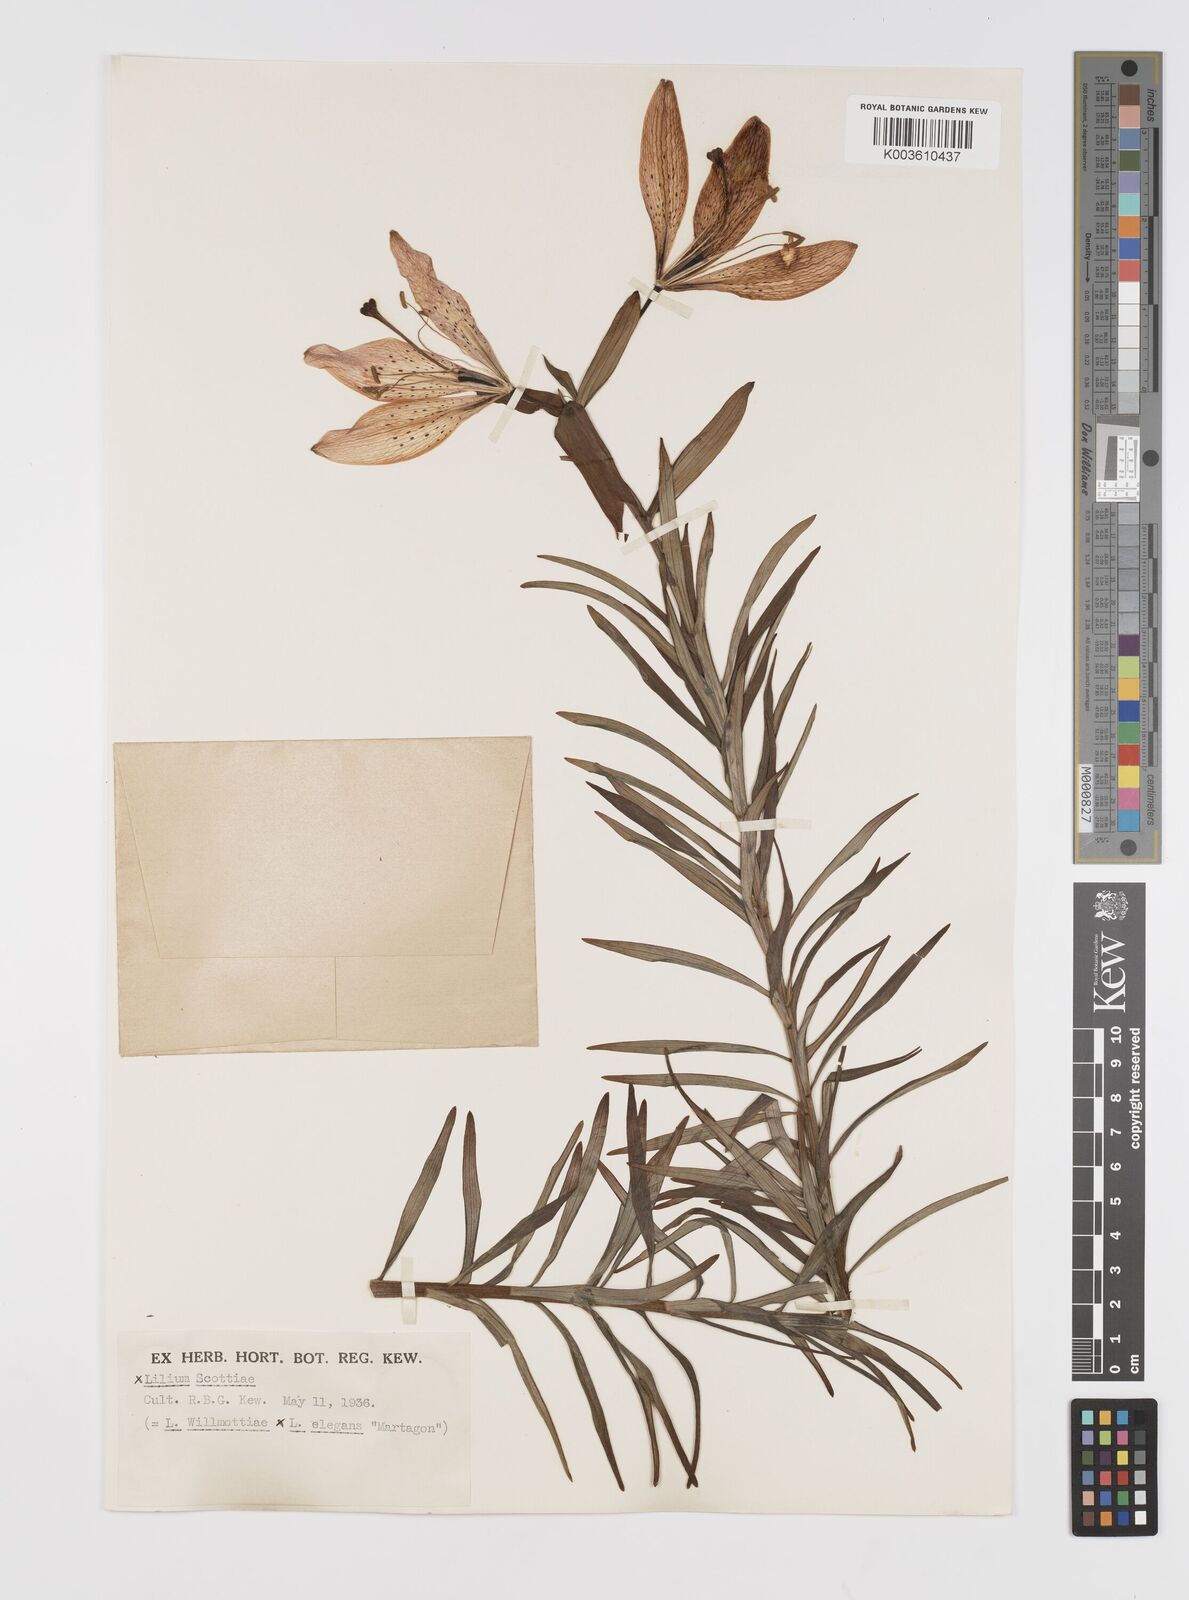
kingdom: Plantae
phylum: Tracheophyta
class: Liliopsida
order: Liliales
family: Liliaceae
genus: Lilium
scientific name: Lilium
